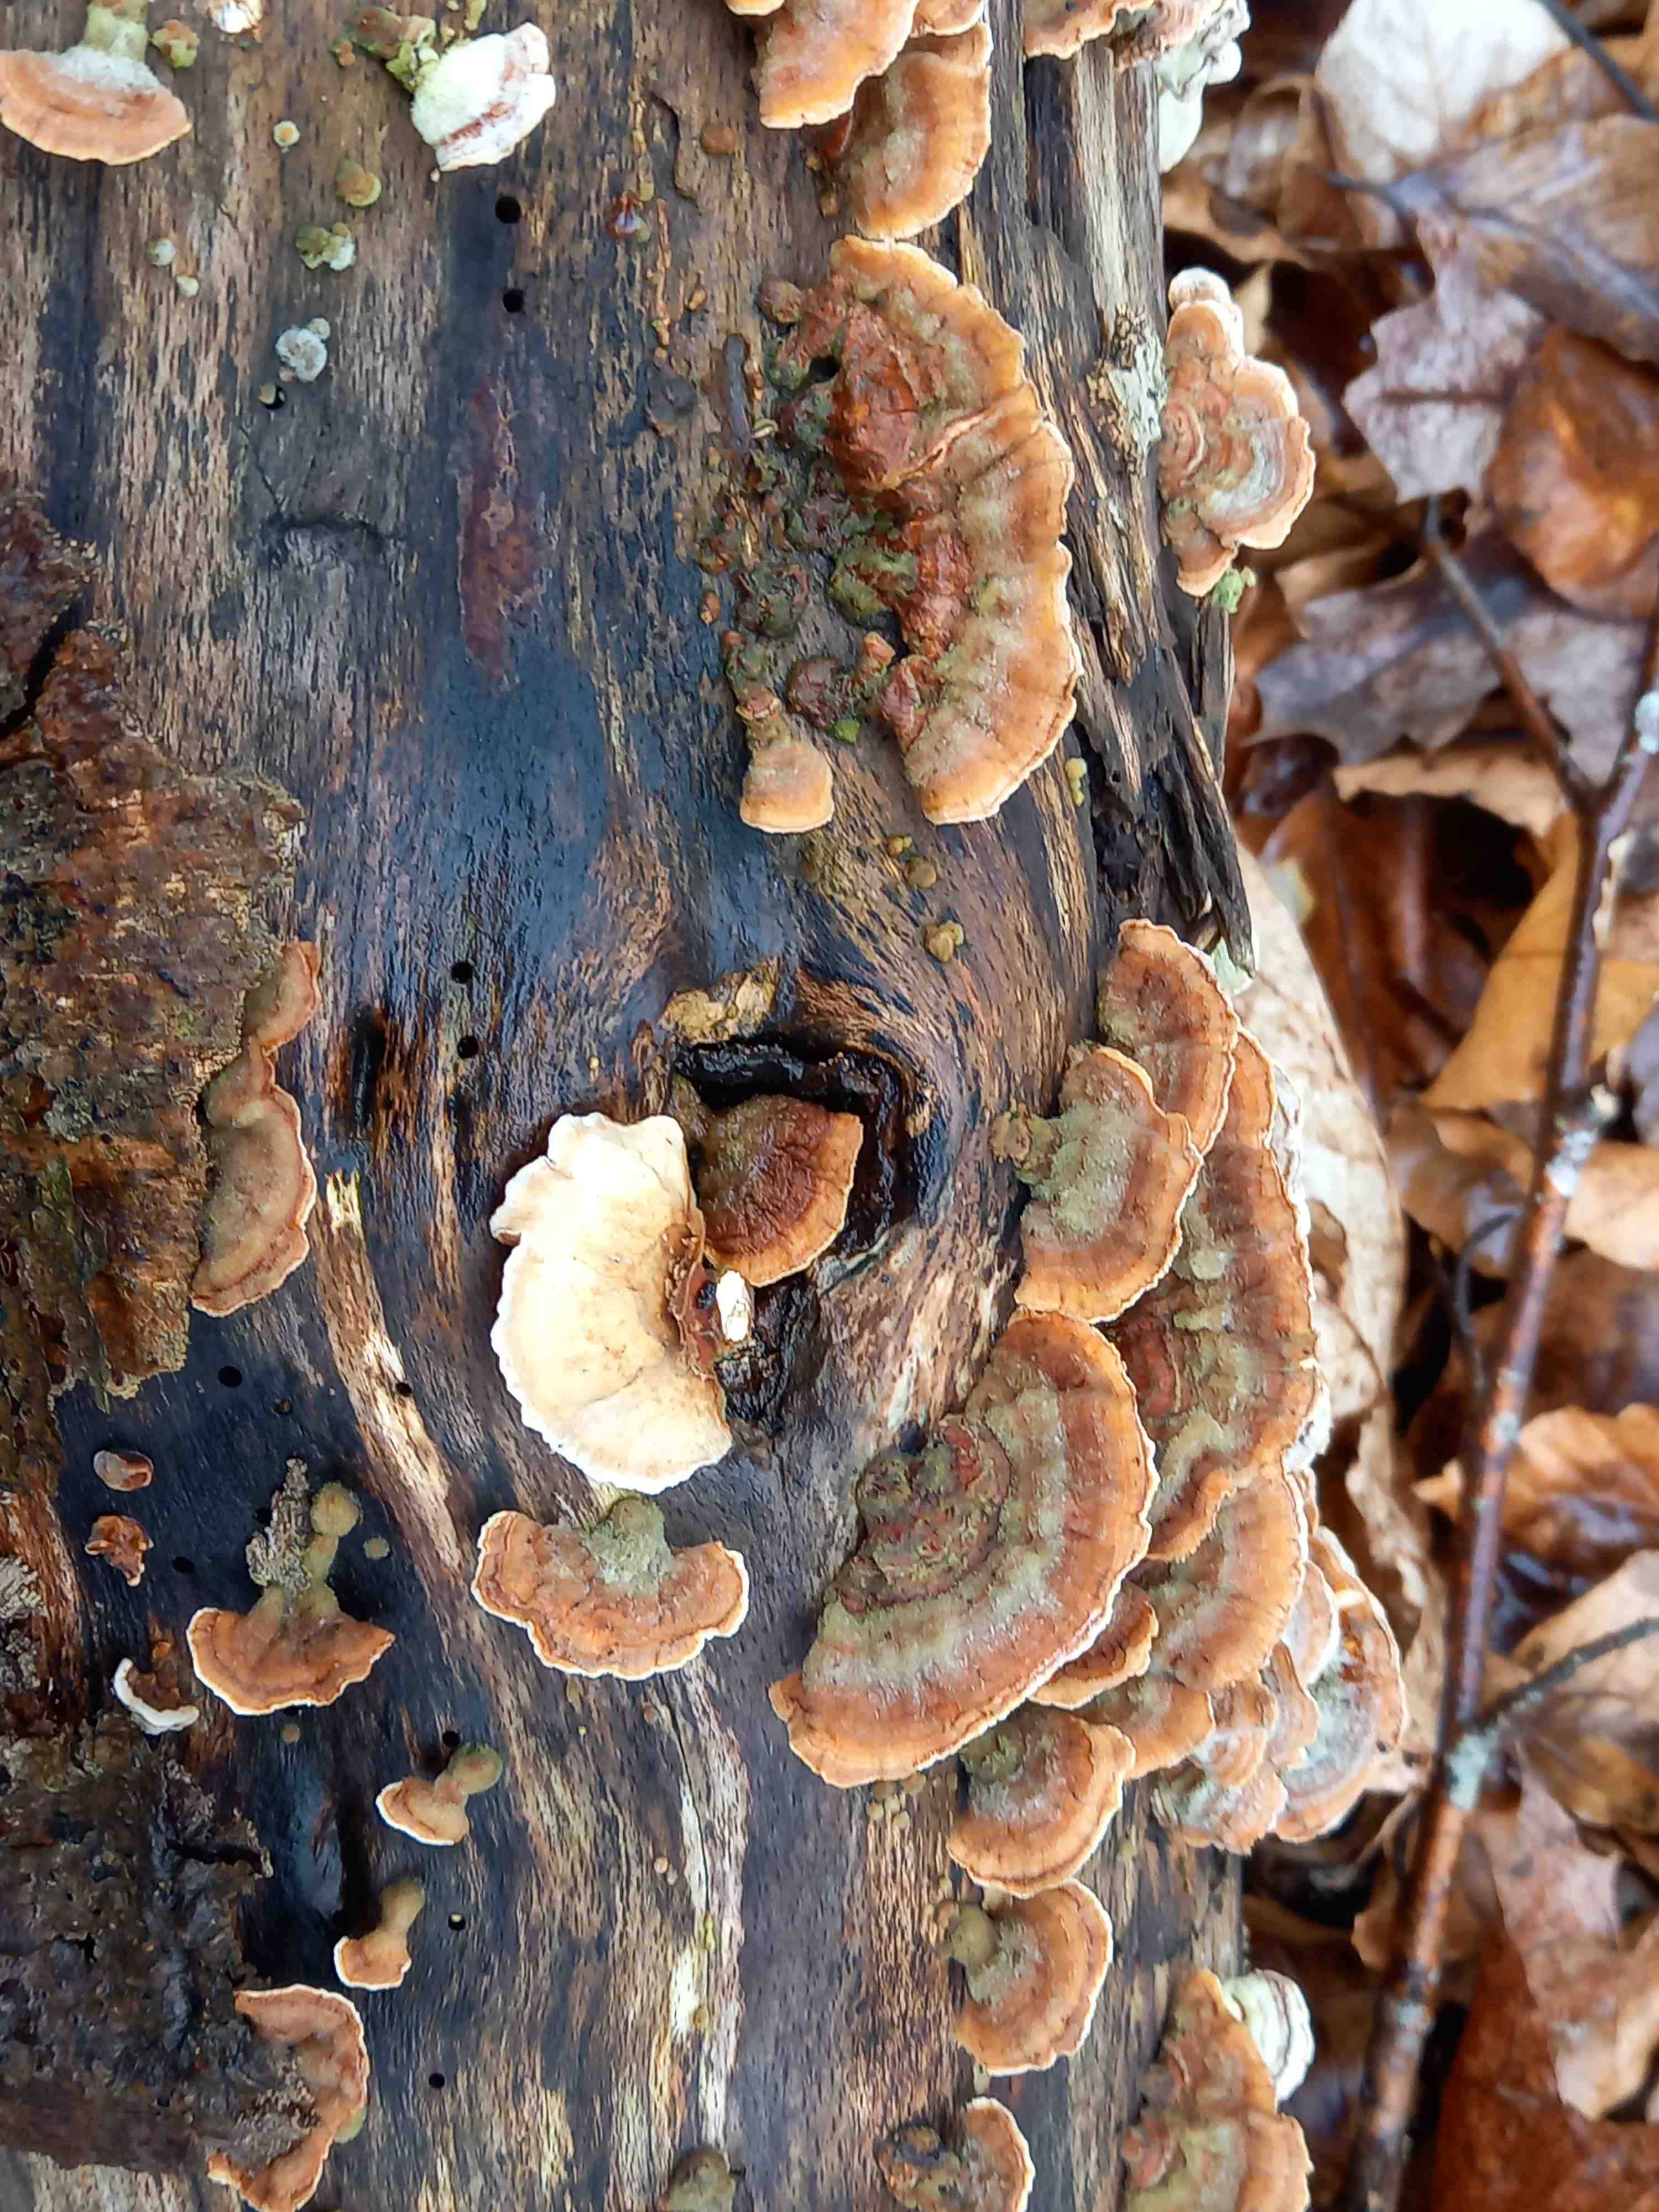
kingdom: Fungi
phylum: Basidiomycota
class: Agaricomycetes
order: Russulales
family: Stereaceae
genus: Stereum
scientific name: Stereum hirsutum
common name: håret lædersvamp
